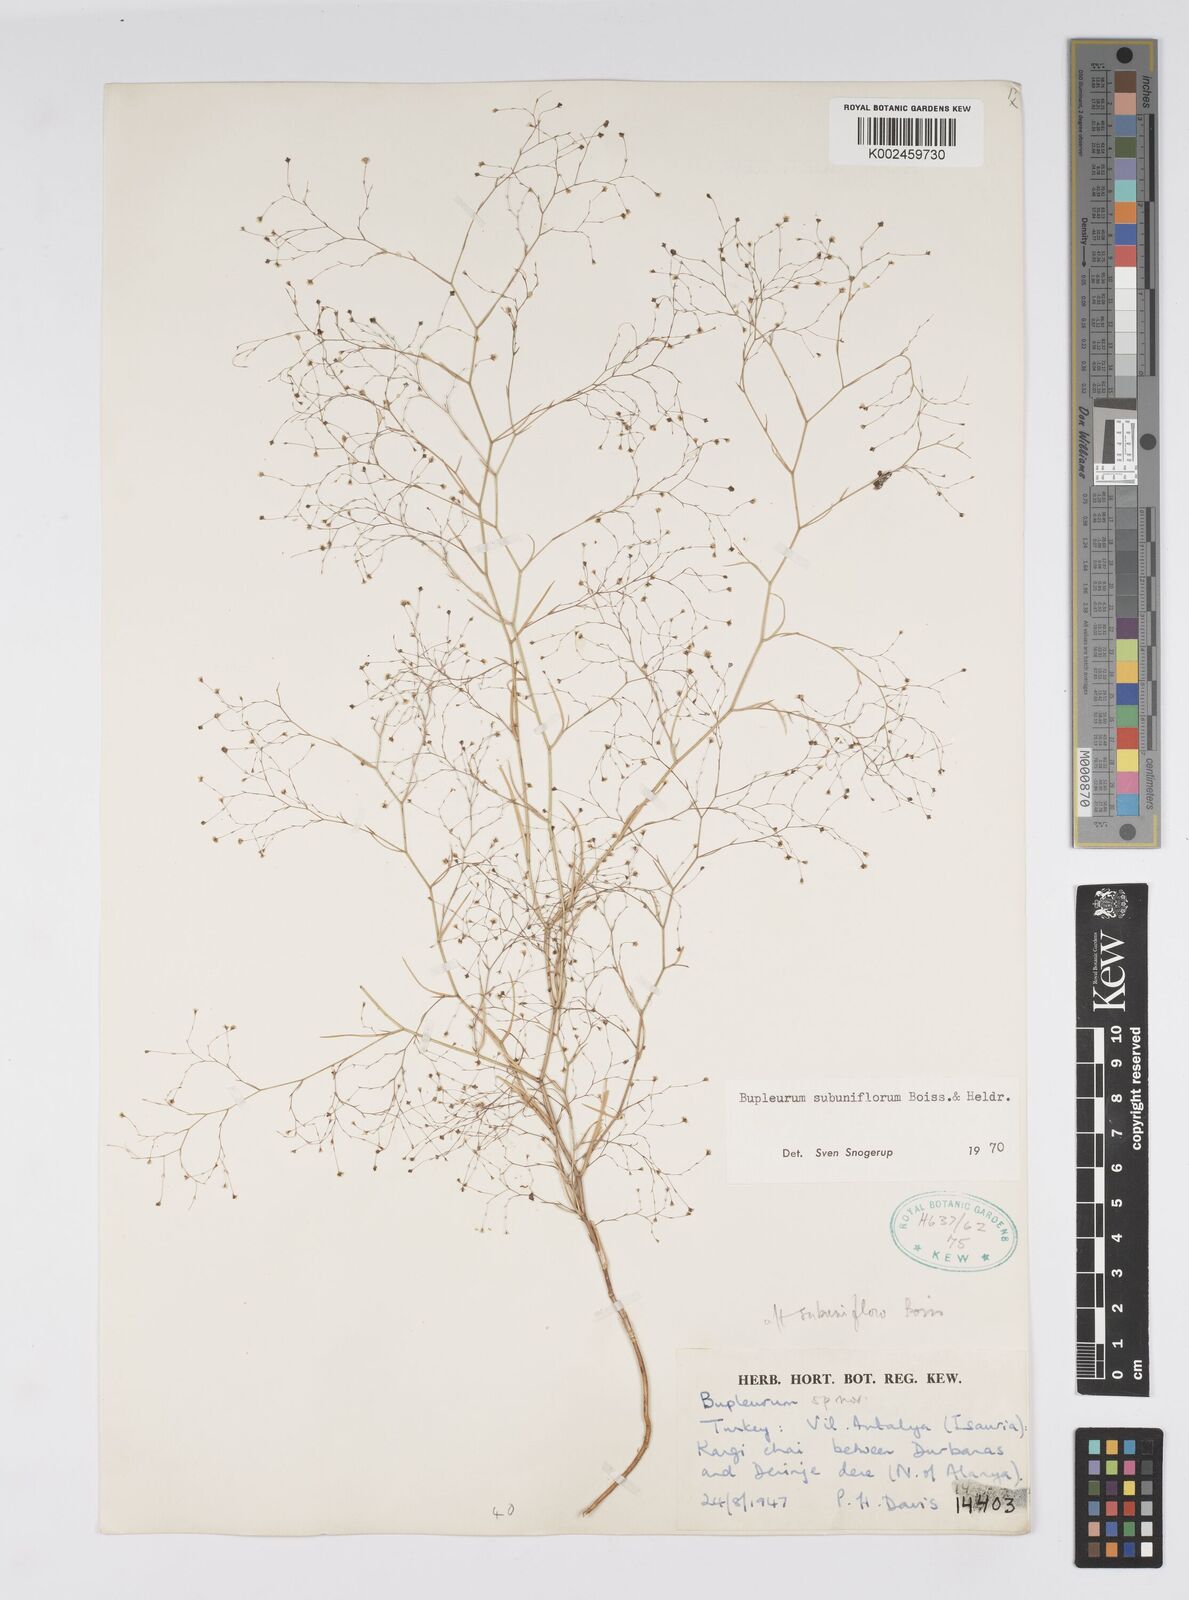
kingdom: Plantae
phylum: Tracheophyta
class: Magnoliopsida
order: Apiales
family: Apiaceae
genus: Bupleurum
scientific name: Bupleurum subuniflorum
